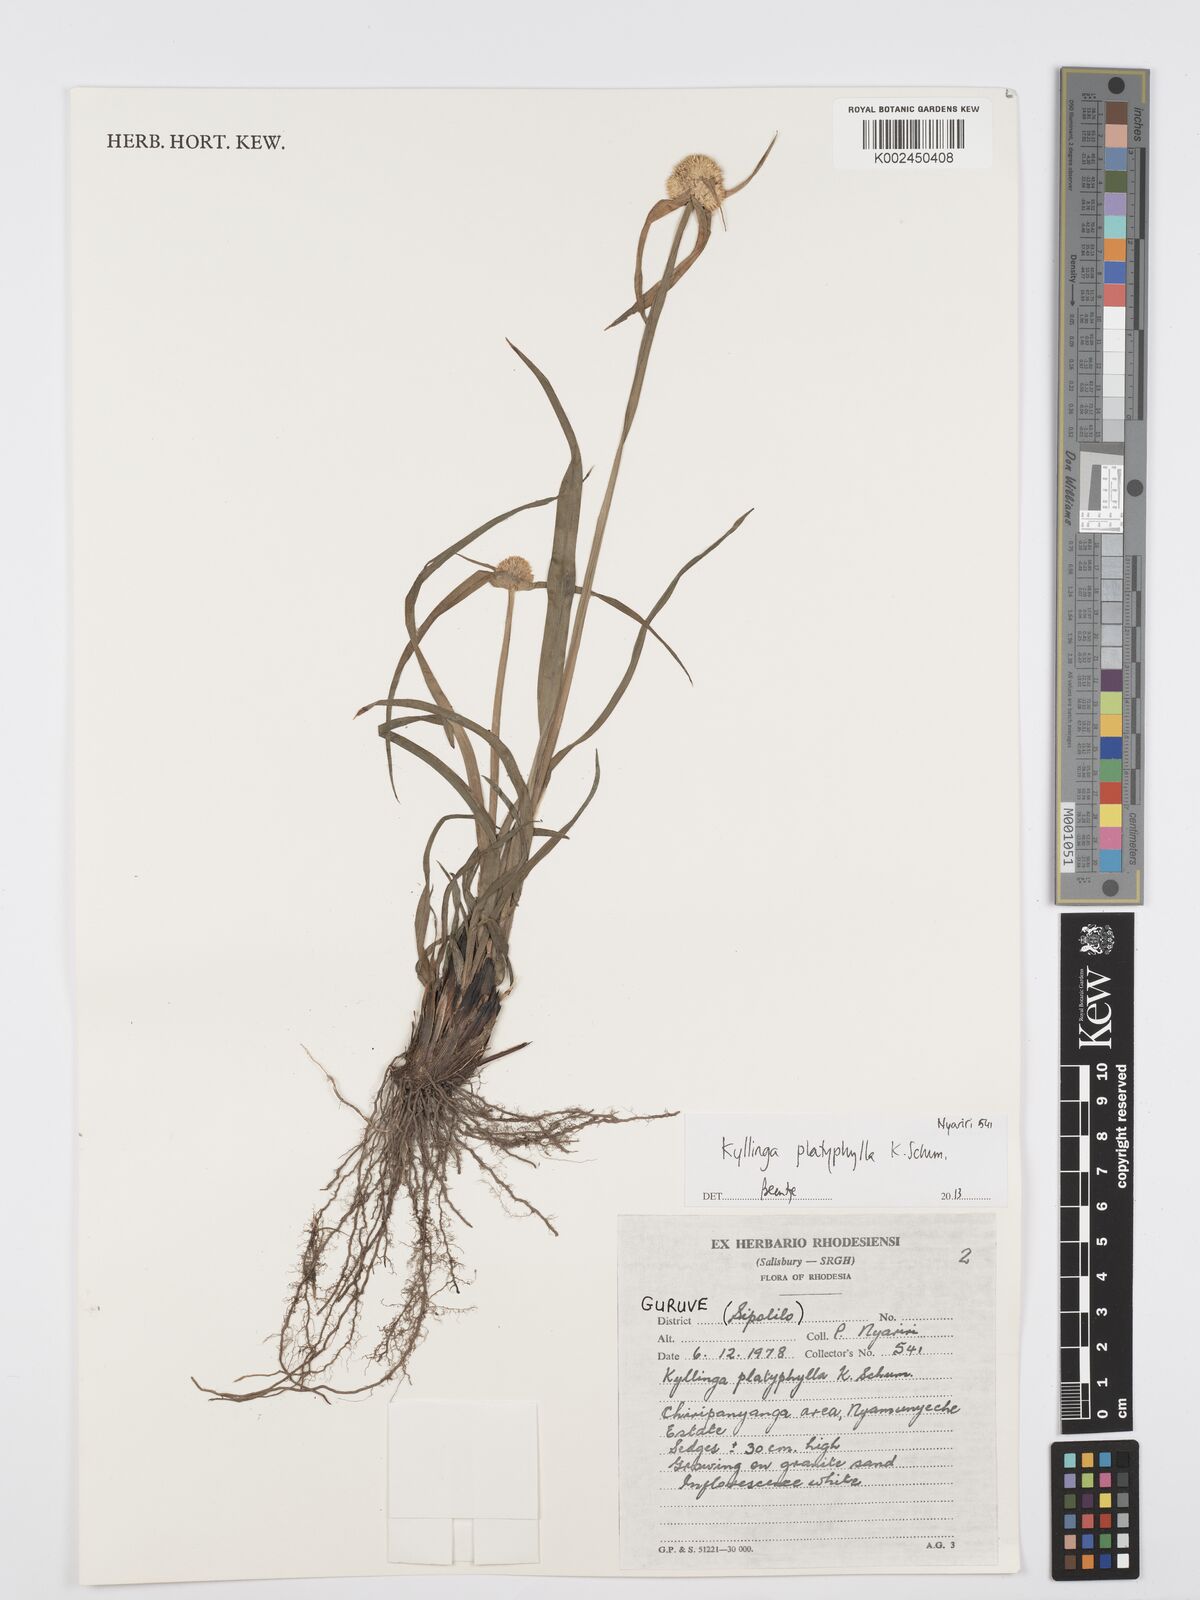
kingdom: Plantae
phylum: Tracheophyta
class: Liliopsida
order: Poales
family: Cyperaceae
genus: Cyperus
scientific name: Cyperus
